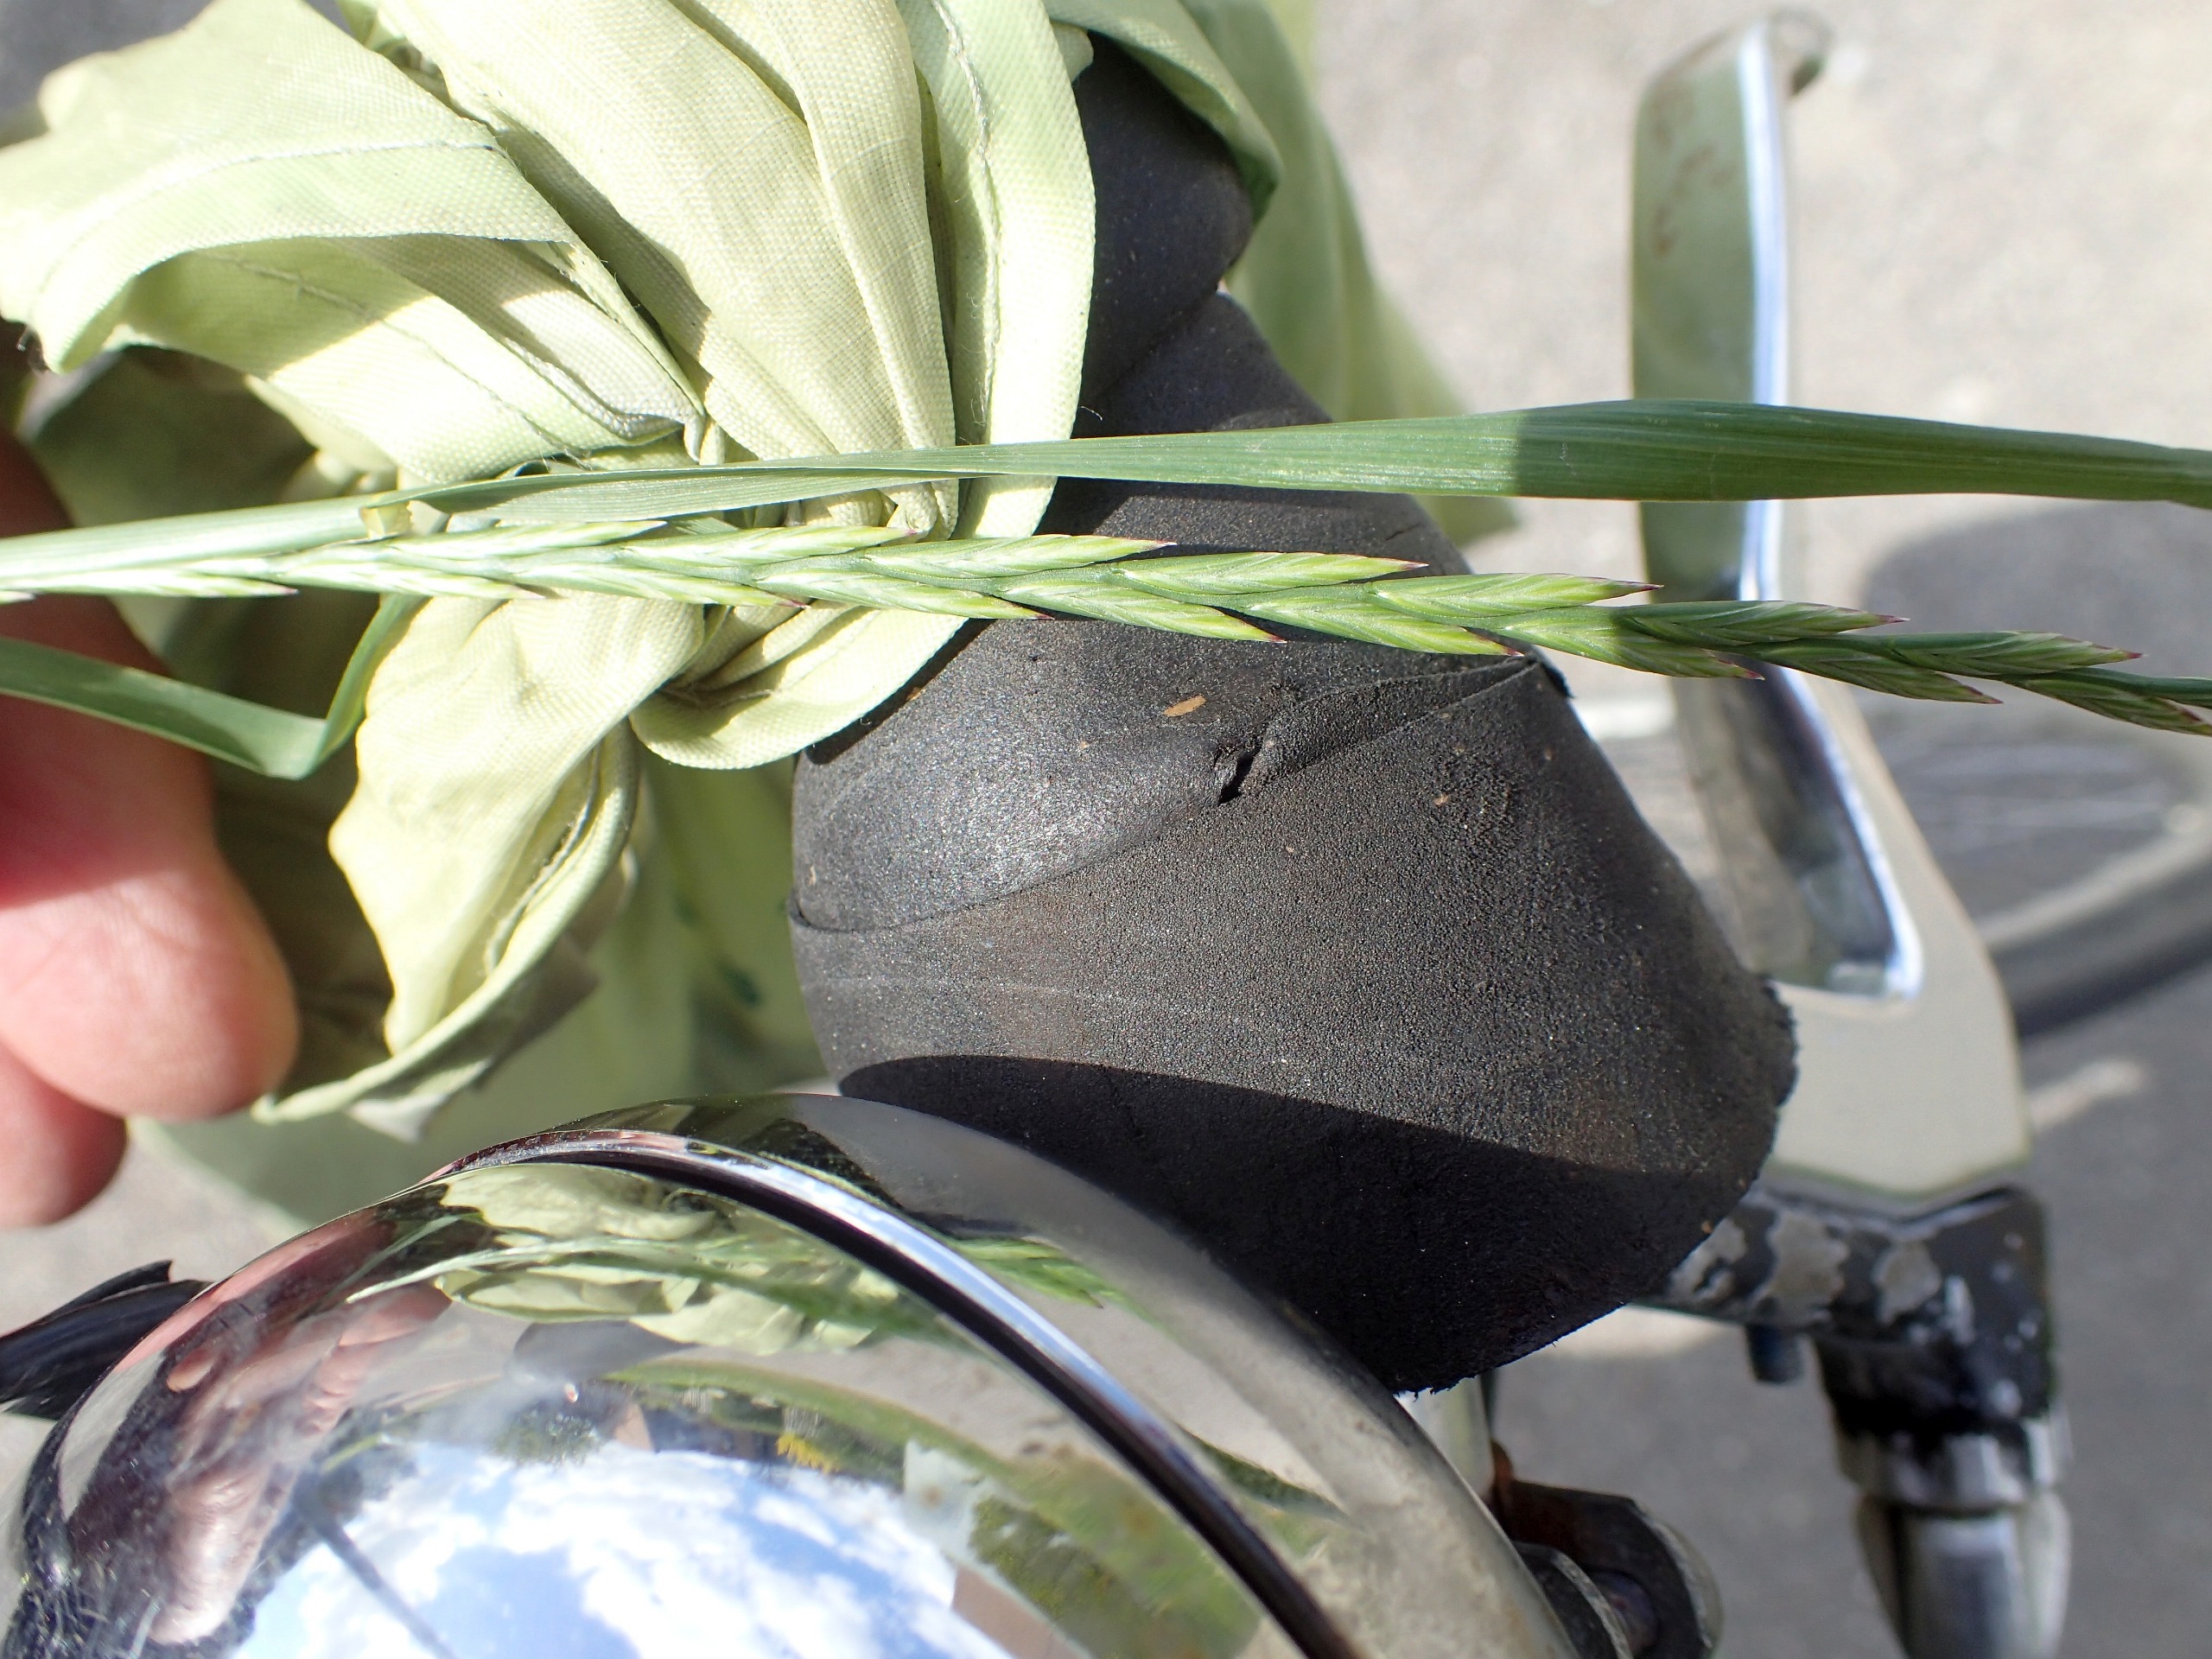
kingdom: Plantae
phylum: Tracheophyta
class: Liliopsida
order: Poales
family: Poaceae
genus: Lolium
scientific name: Lolium perenne
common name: Almindelig rajgræs
